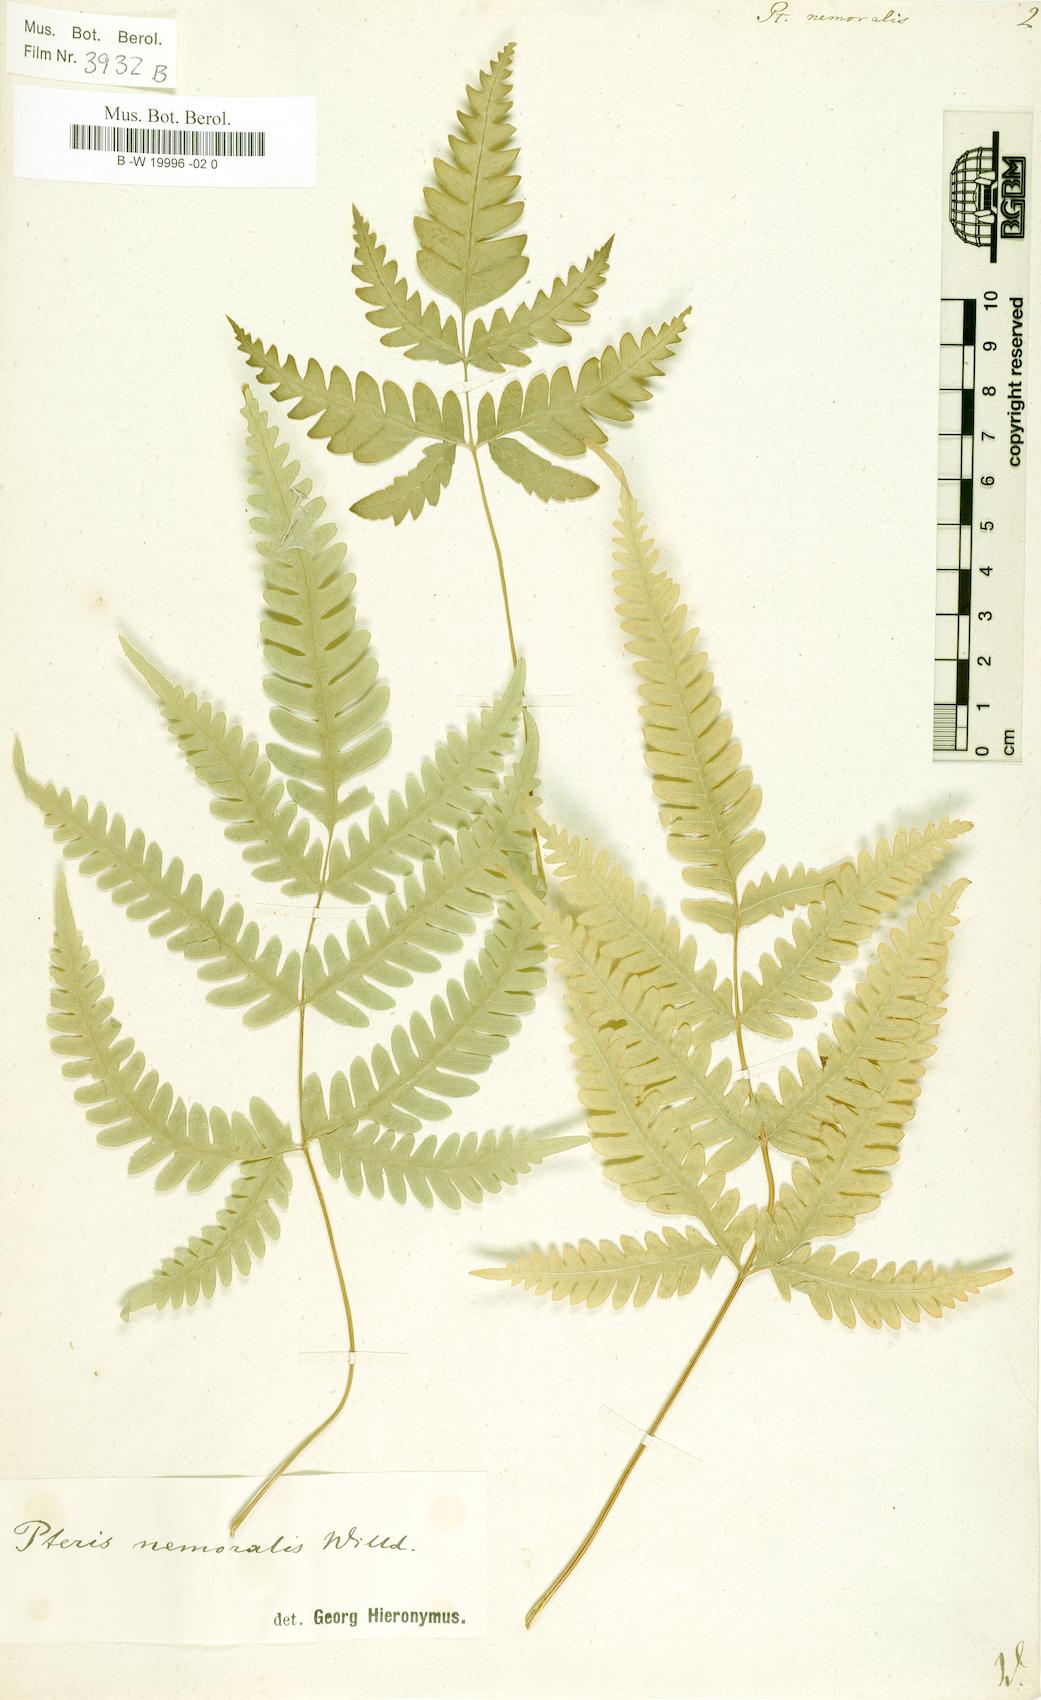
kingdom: Plantae
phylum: Tracheophyta
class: Polypodiopsida
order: Polypodiales
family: Pteridaceae
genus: Pteris
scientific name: Pteris linearis
